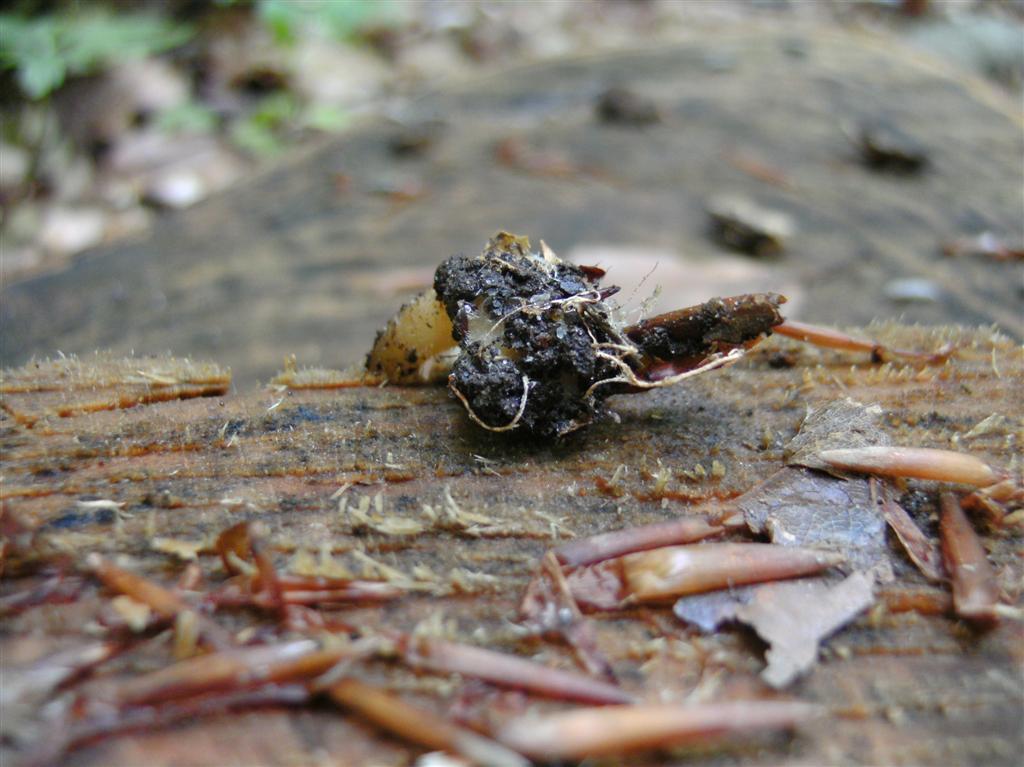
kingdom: Fungi
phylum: Basidiomycota
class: Agaricomycetes
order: Agaricales
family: Omphalotaceae
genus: Gymnopus
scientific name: Gymnopus aquosus
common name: bleg fladhat
